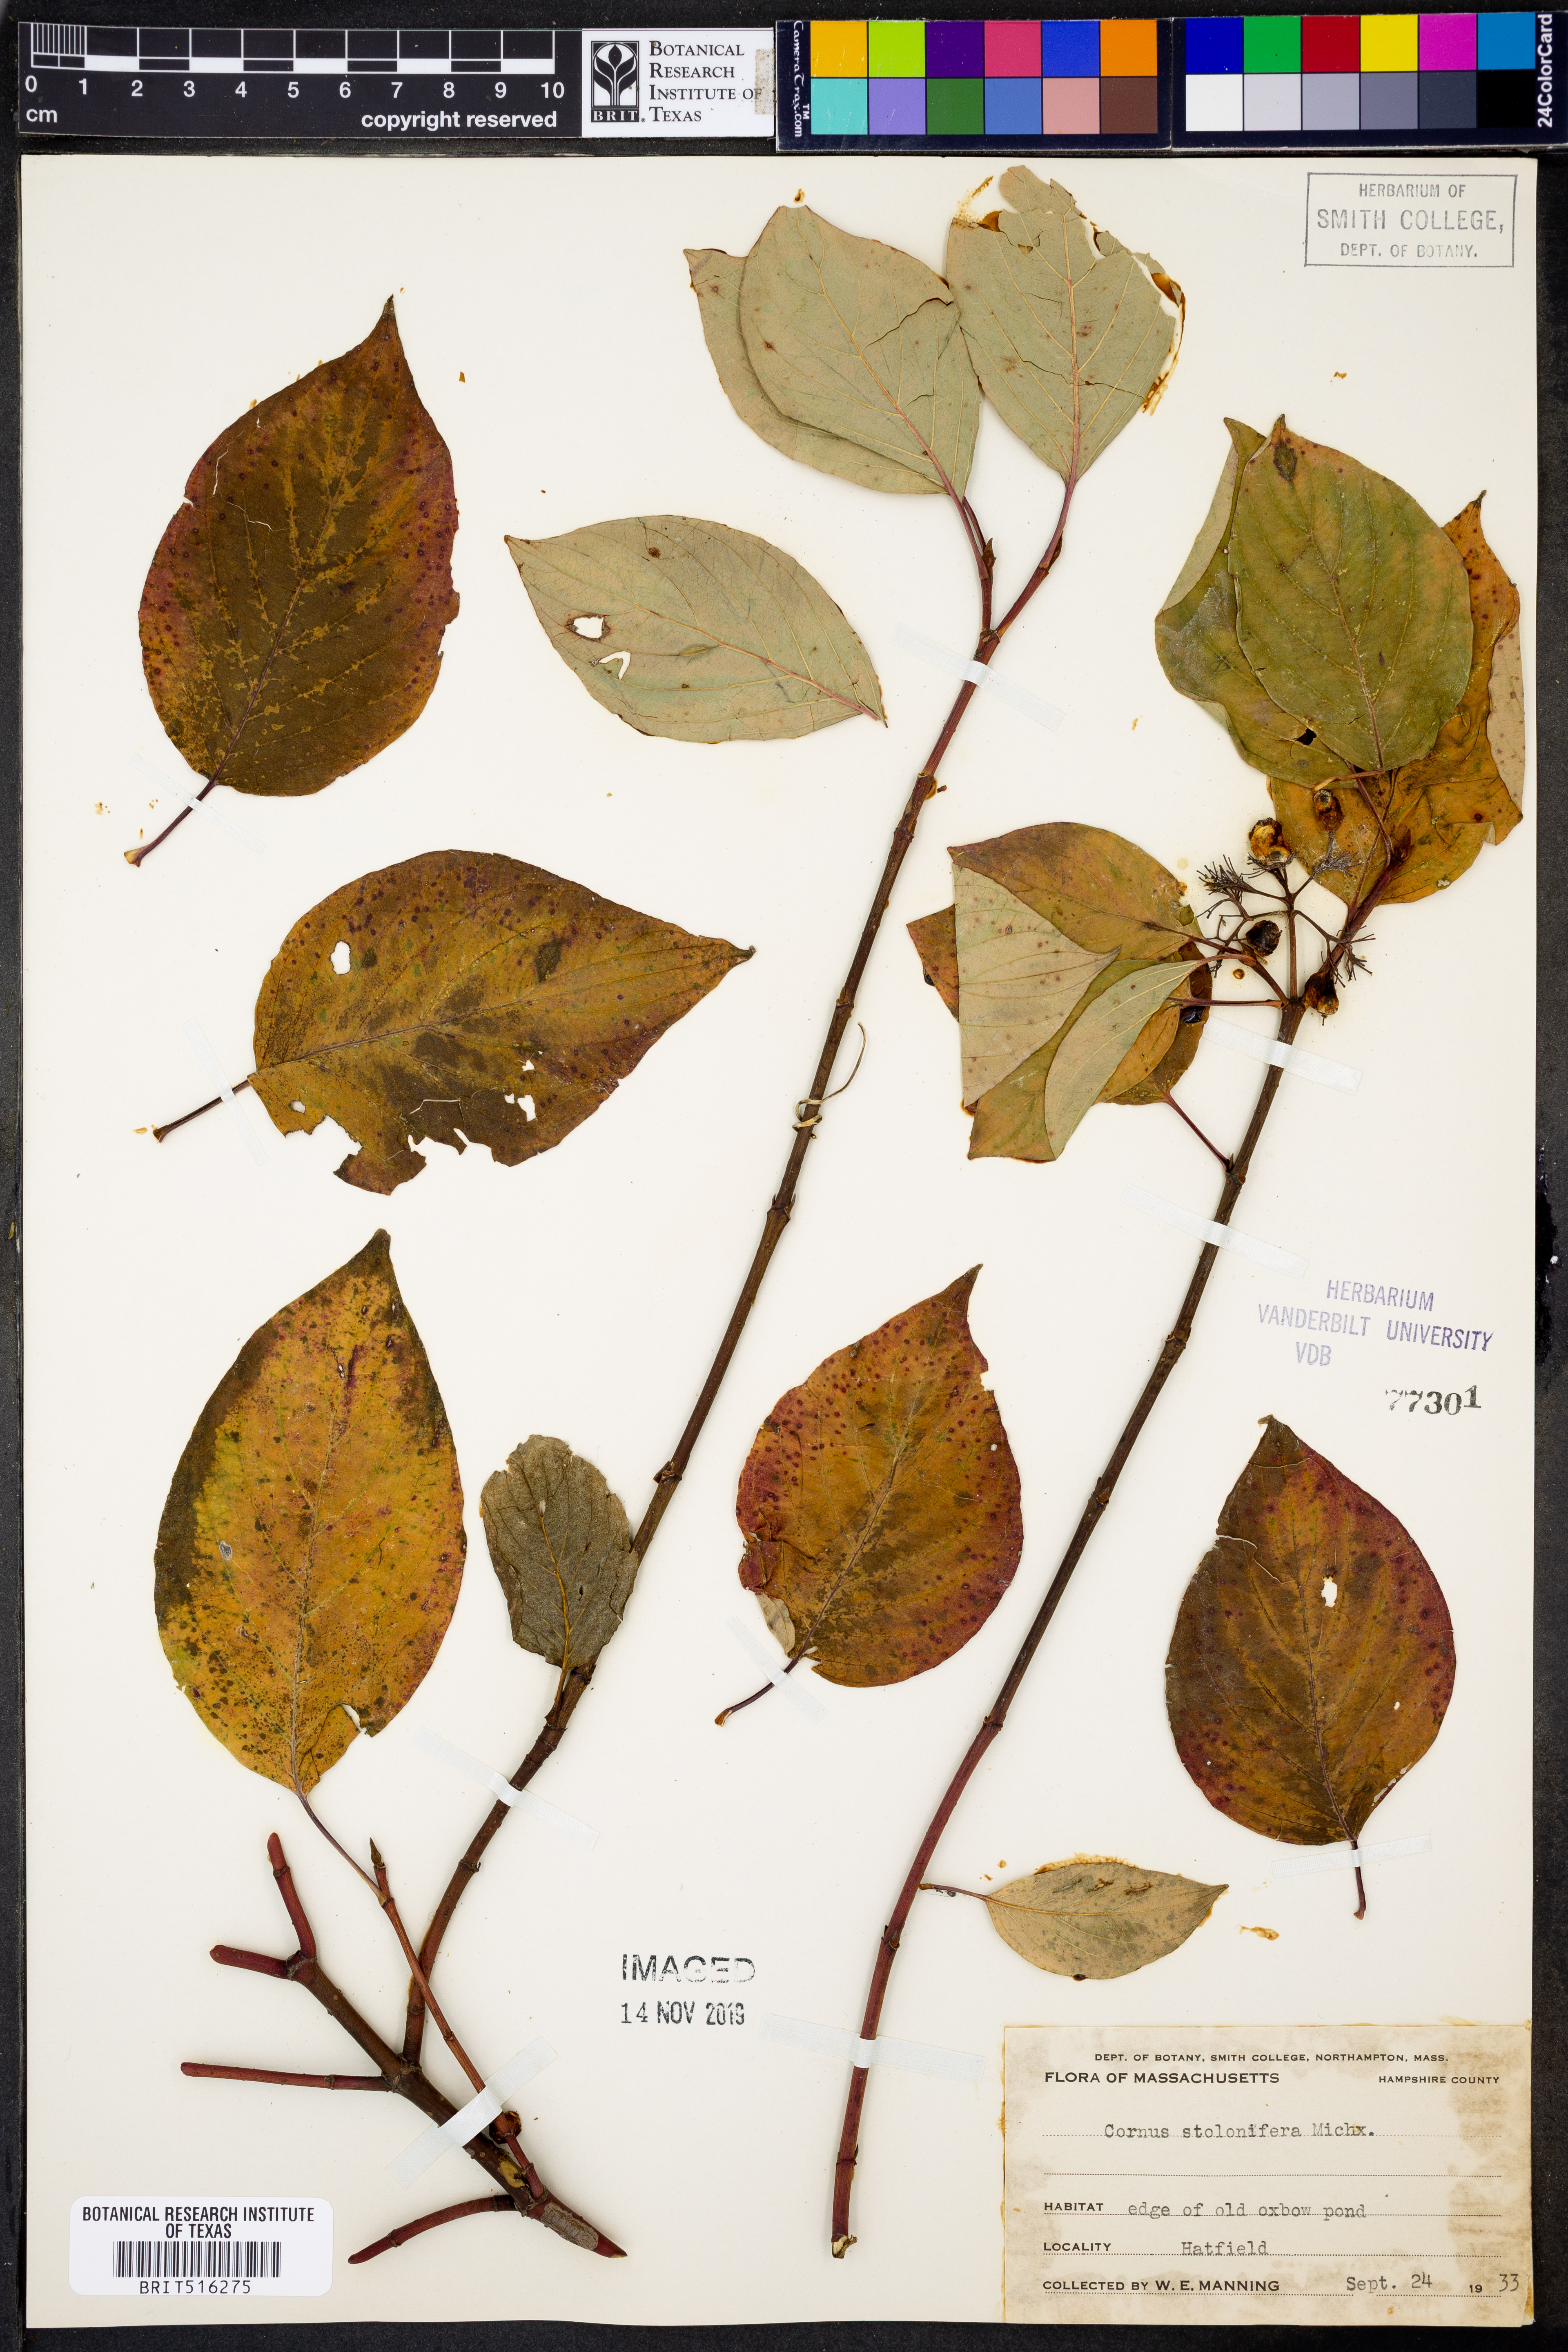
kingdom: Plantae
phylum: Tracheophyta
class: Magnoliopsida
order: Cornales
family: Cornaceae
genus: Cornus
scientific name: Cornus sericea
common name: Red-osier dogwood
